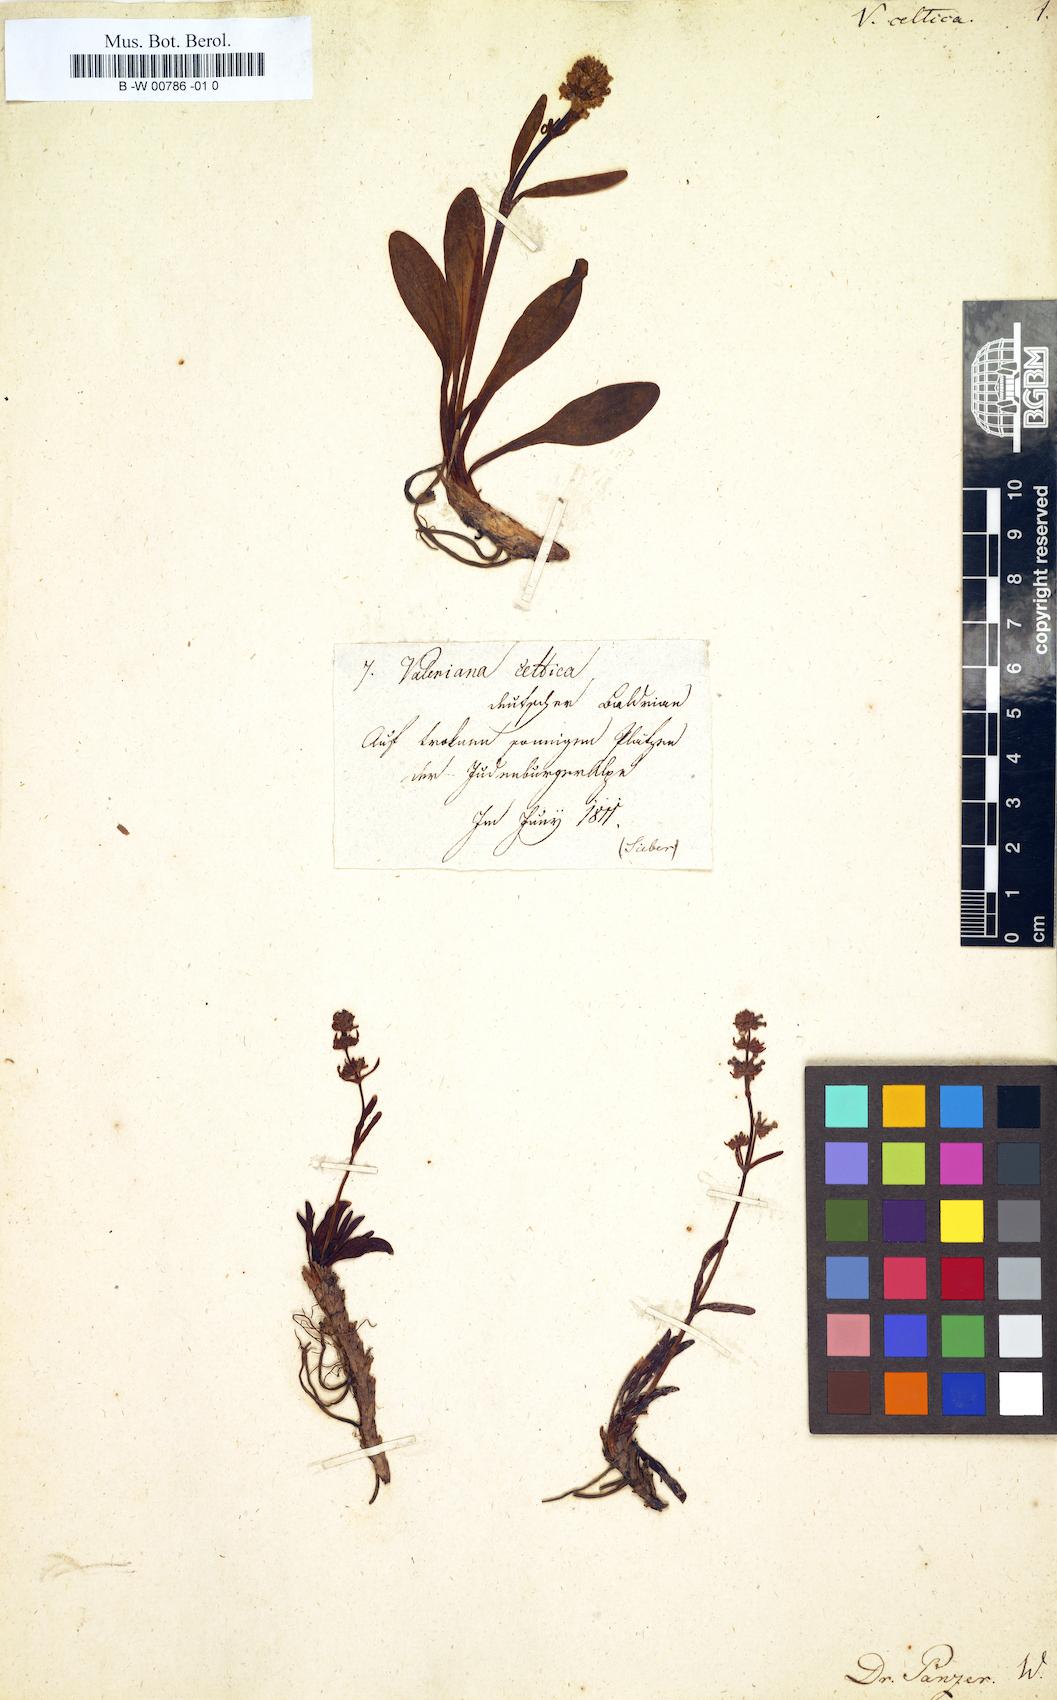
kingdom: Plantae
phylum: Tracheophyta
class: Magnoliopsida
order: Dipsacales
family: Caprifoliaceae
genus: Valeriana
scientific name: Valeriana celtica
